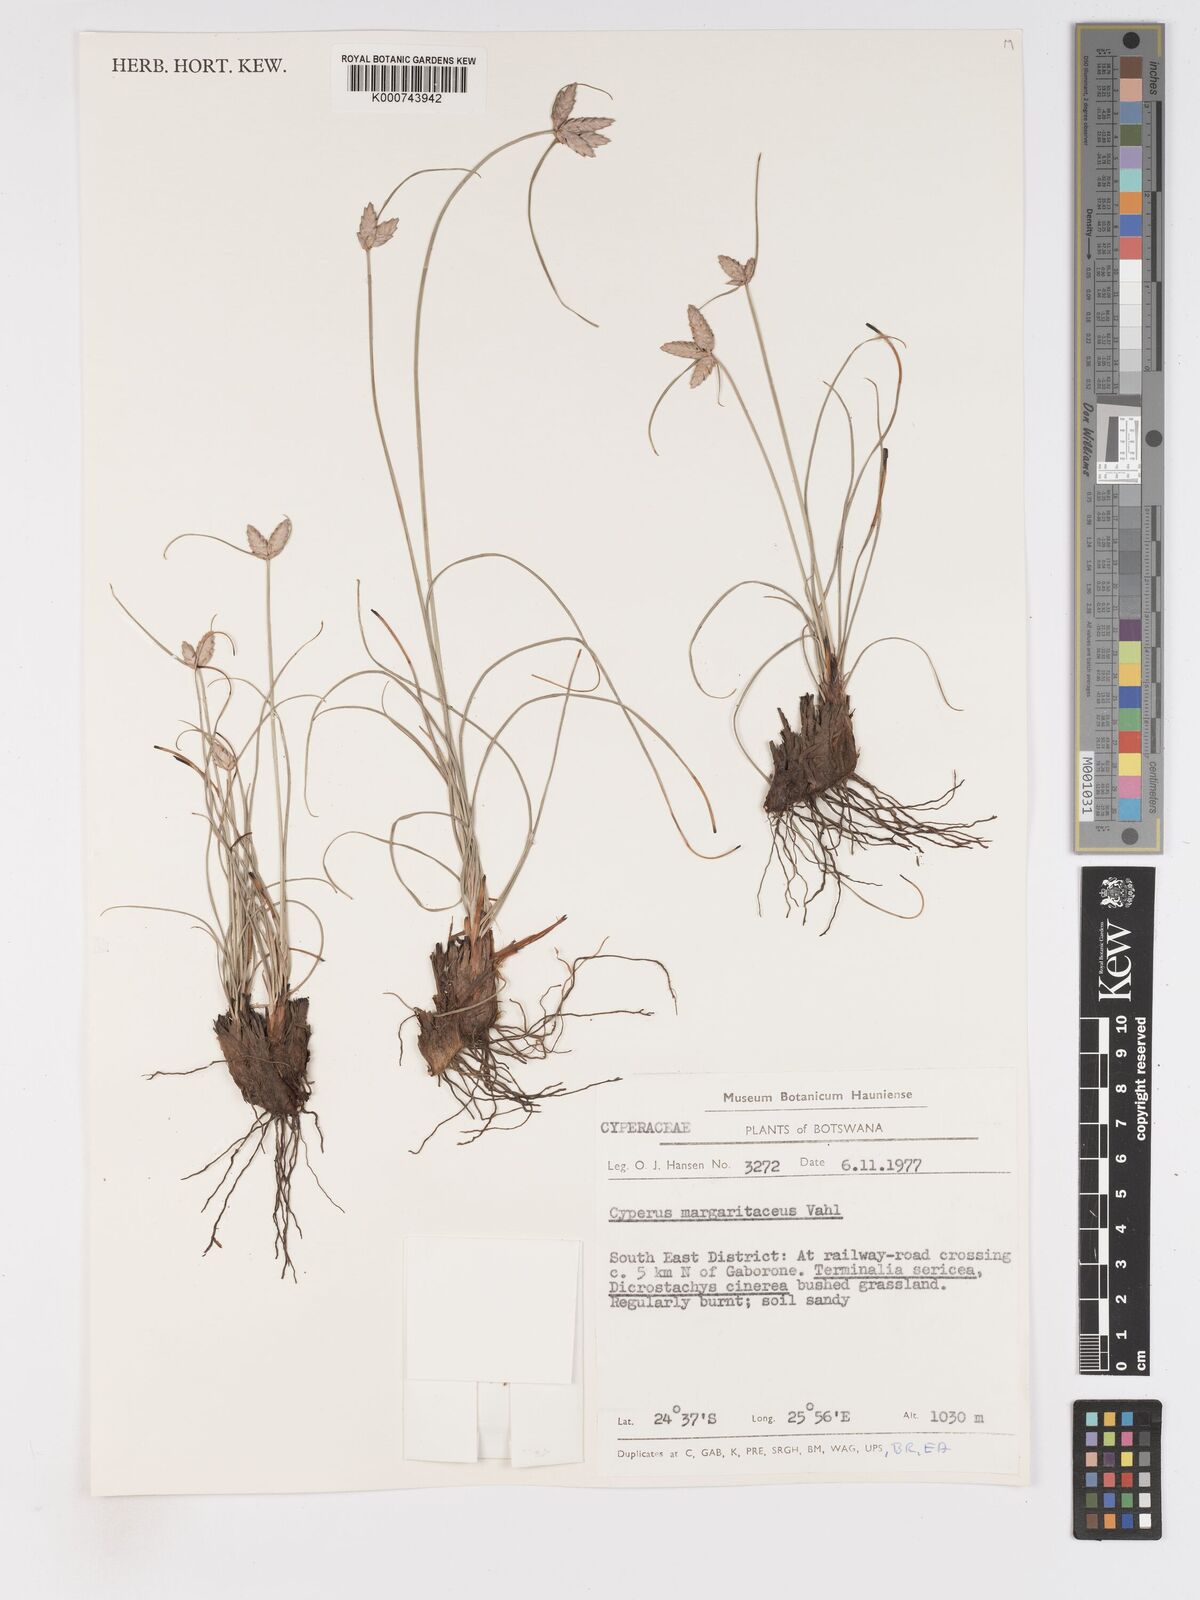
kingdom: Plantae
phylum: Tracheophyta
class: Liliopsida
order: Poales
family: Cyperaceae
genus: Cyperus
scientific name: Cyperus margaritaceus
